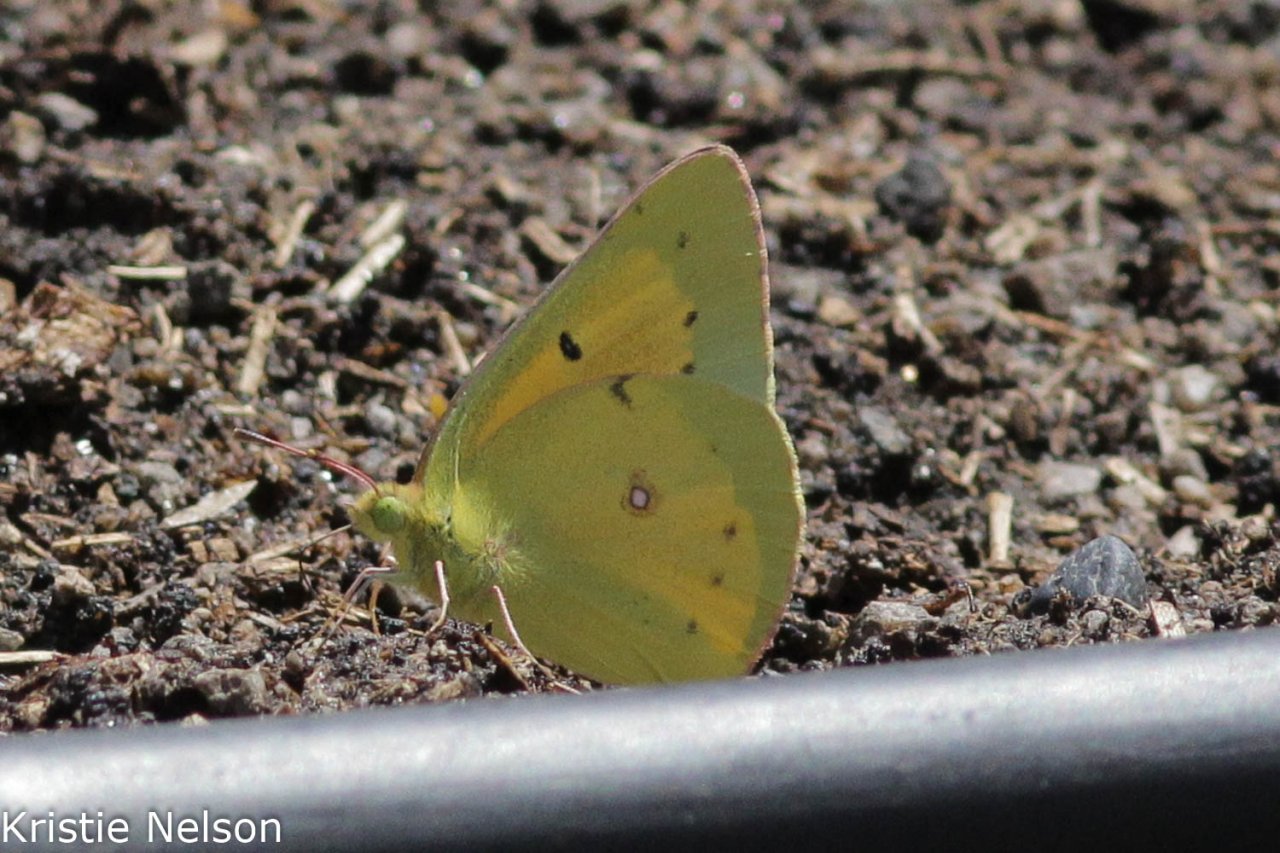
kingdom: Animalia
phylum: Arthropoda
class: Insecta
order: Lepidoptera
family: Pieridae
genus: Colias
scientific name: Colias eurytheme
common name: Orange Sulphur
